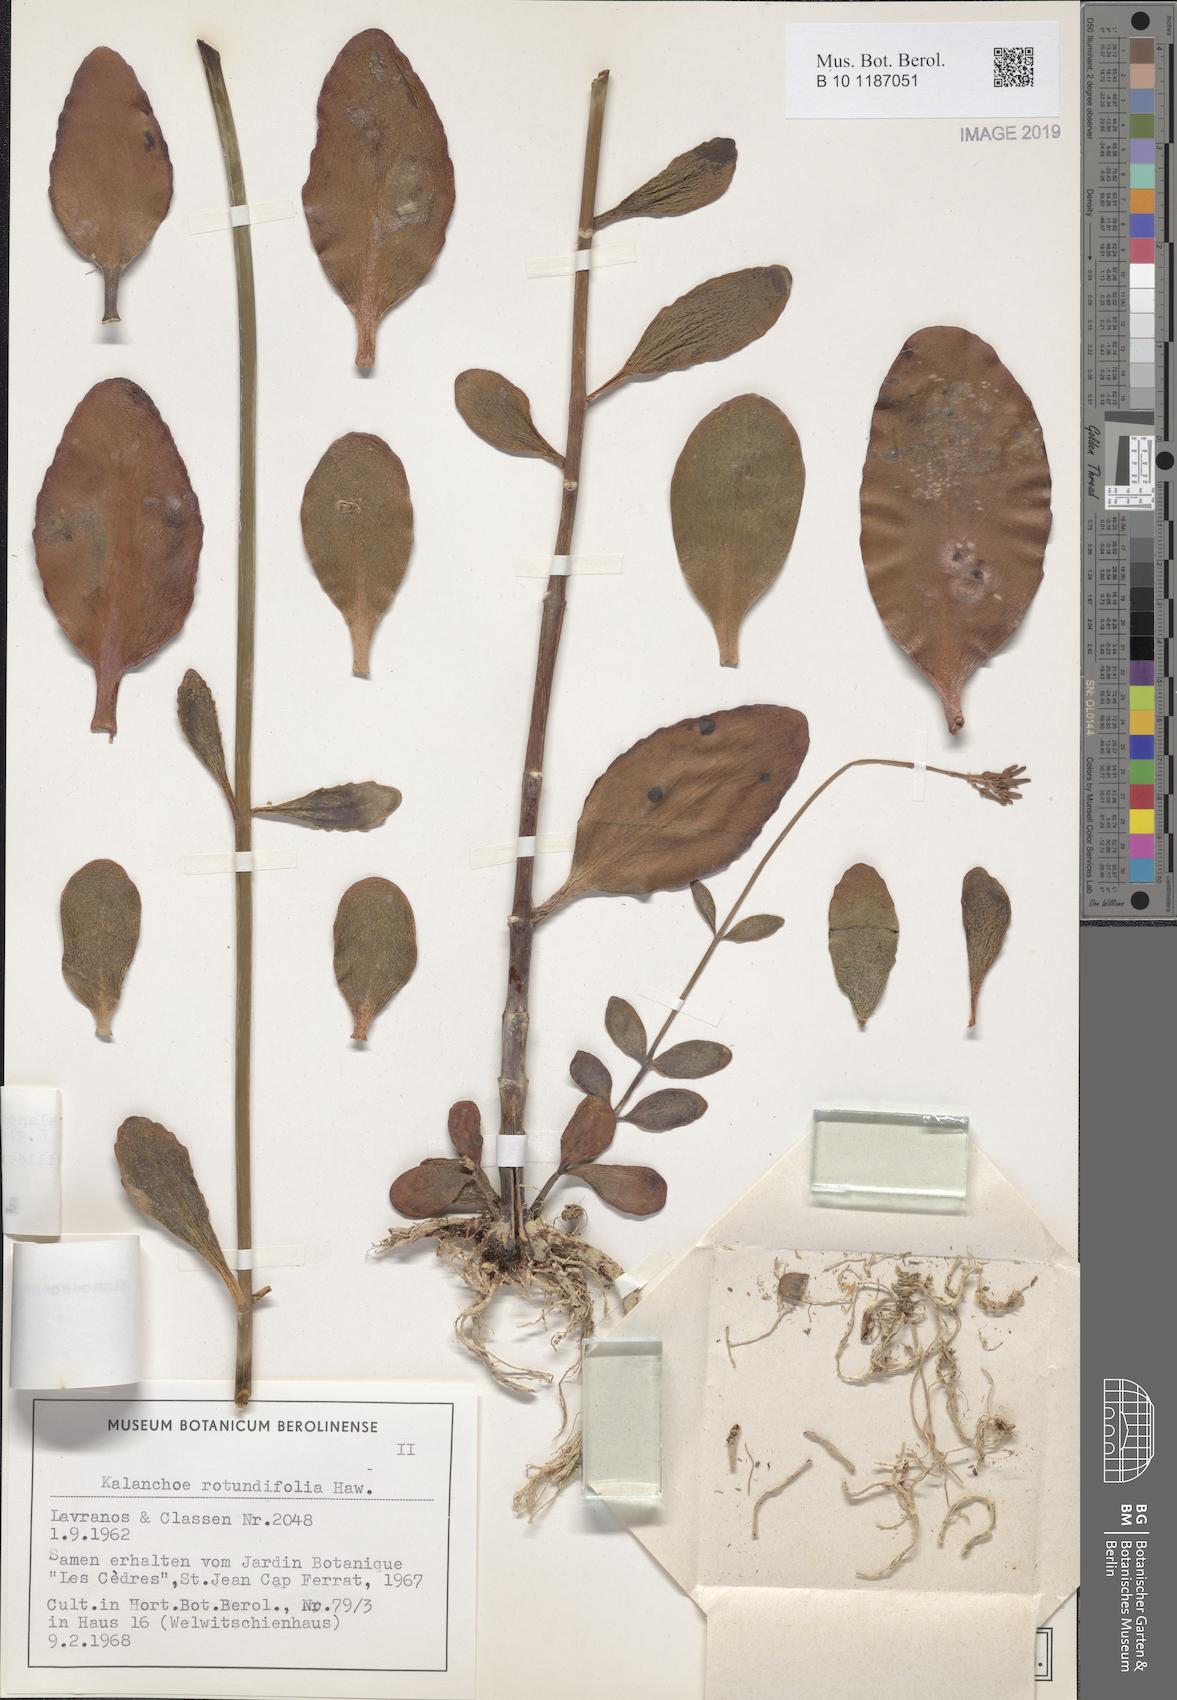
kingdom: Plantae
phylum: Tracheophyta
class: Magnoliopsida
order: Saxifragales
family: Crassulaceae
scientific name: Crassulaceae
